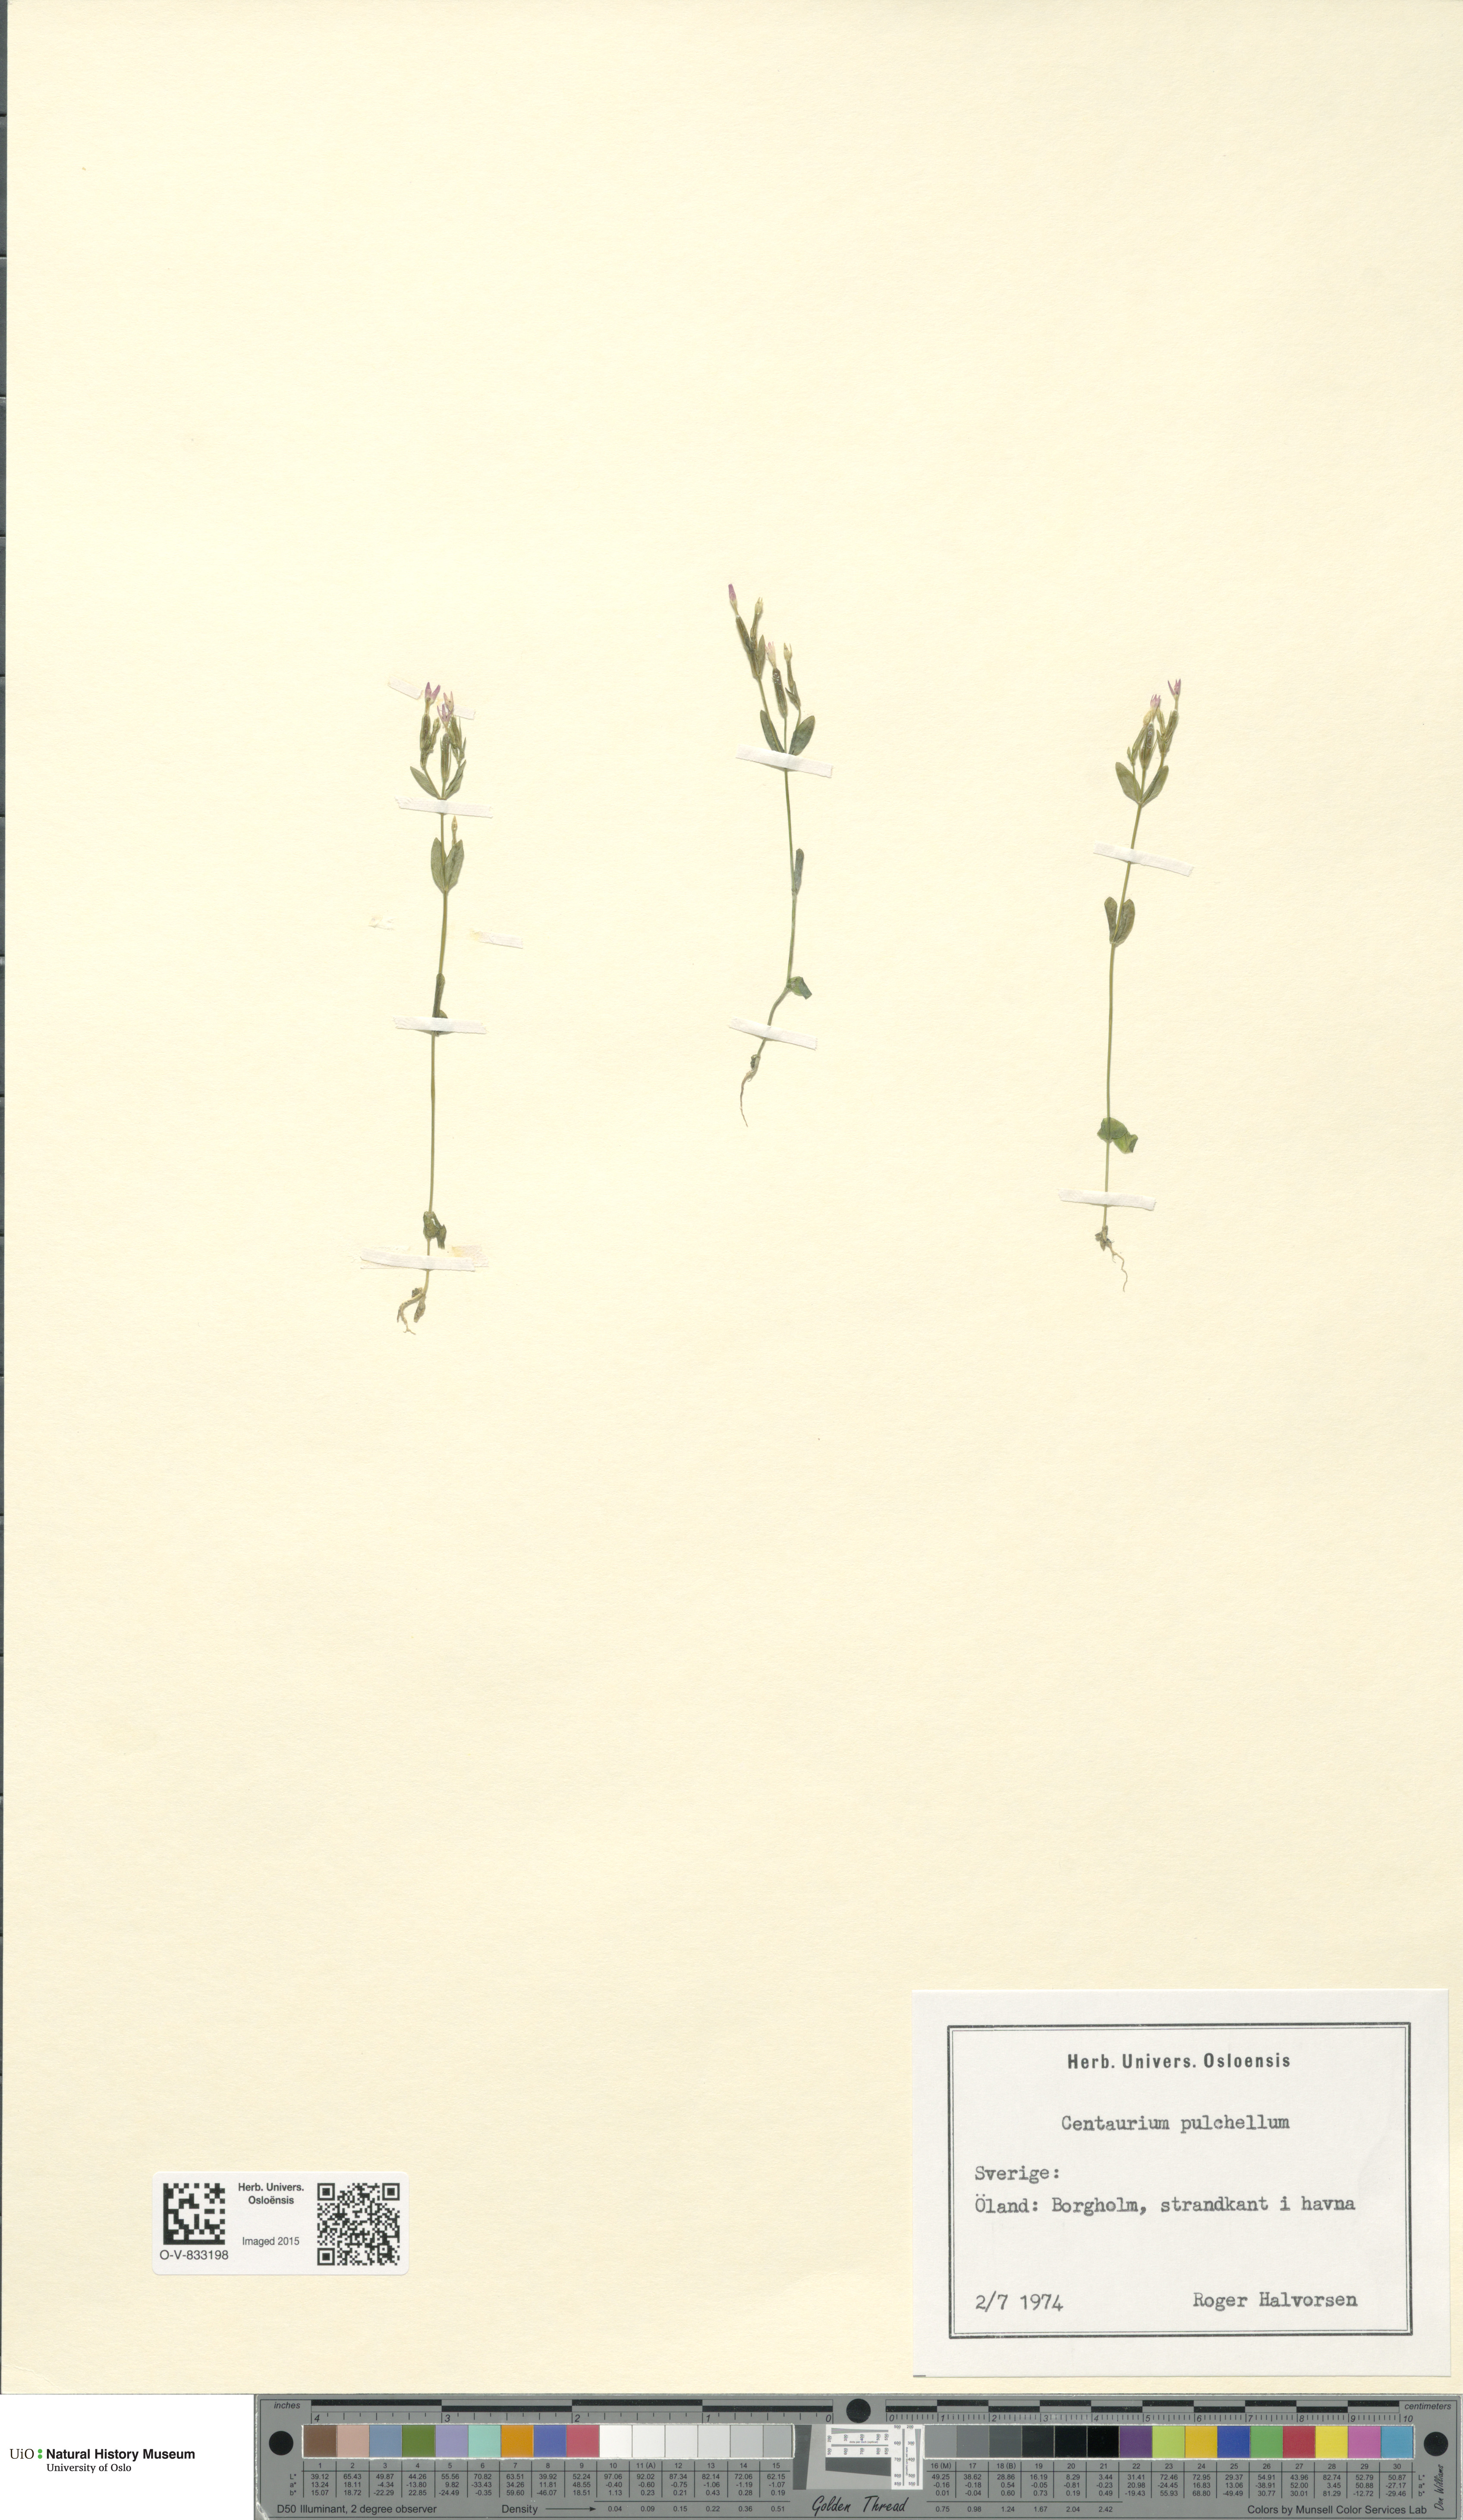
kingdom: Plantae
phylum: Tracheophyta
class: Magnoliopsida
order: Gentianales
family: Gentianaceae
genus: Centaurium
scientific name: Centaurium pulchellum
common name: Lesser centaury
